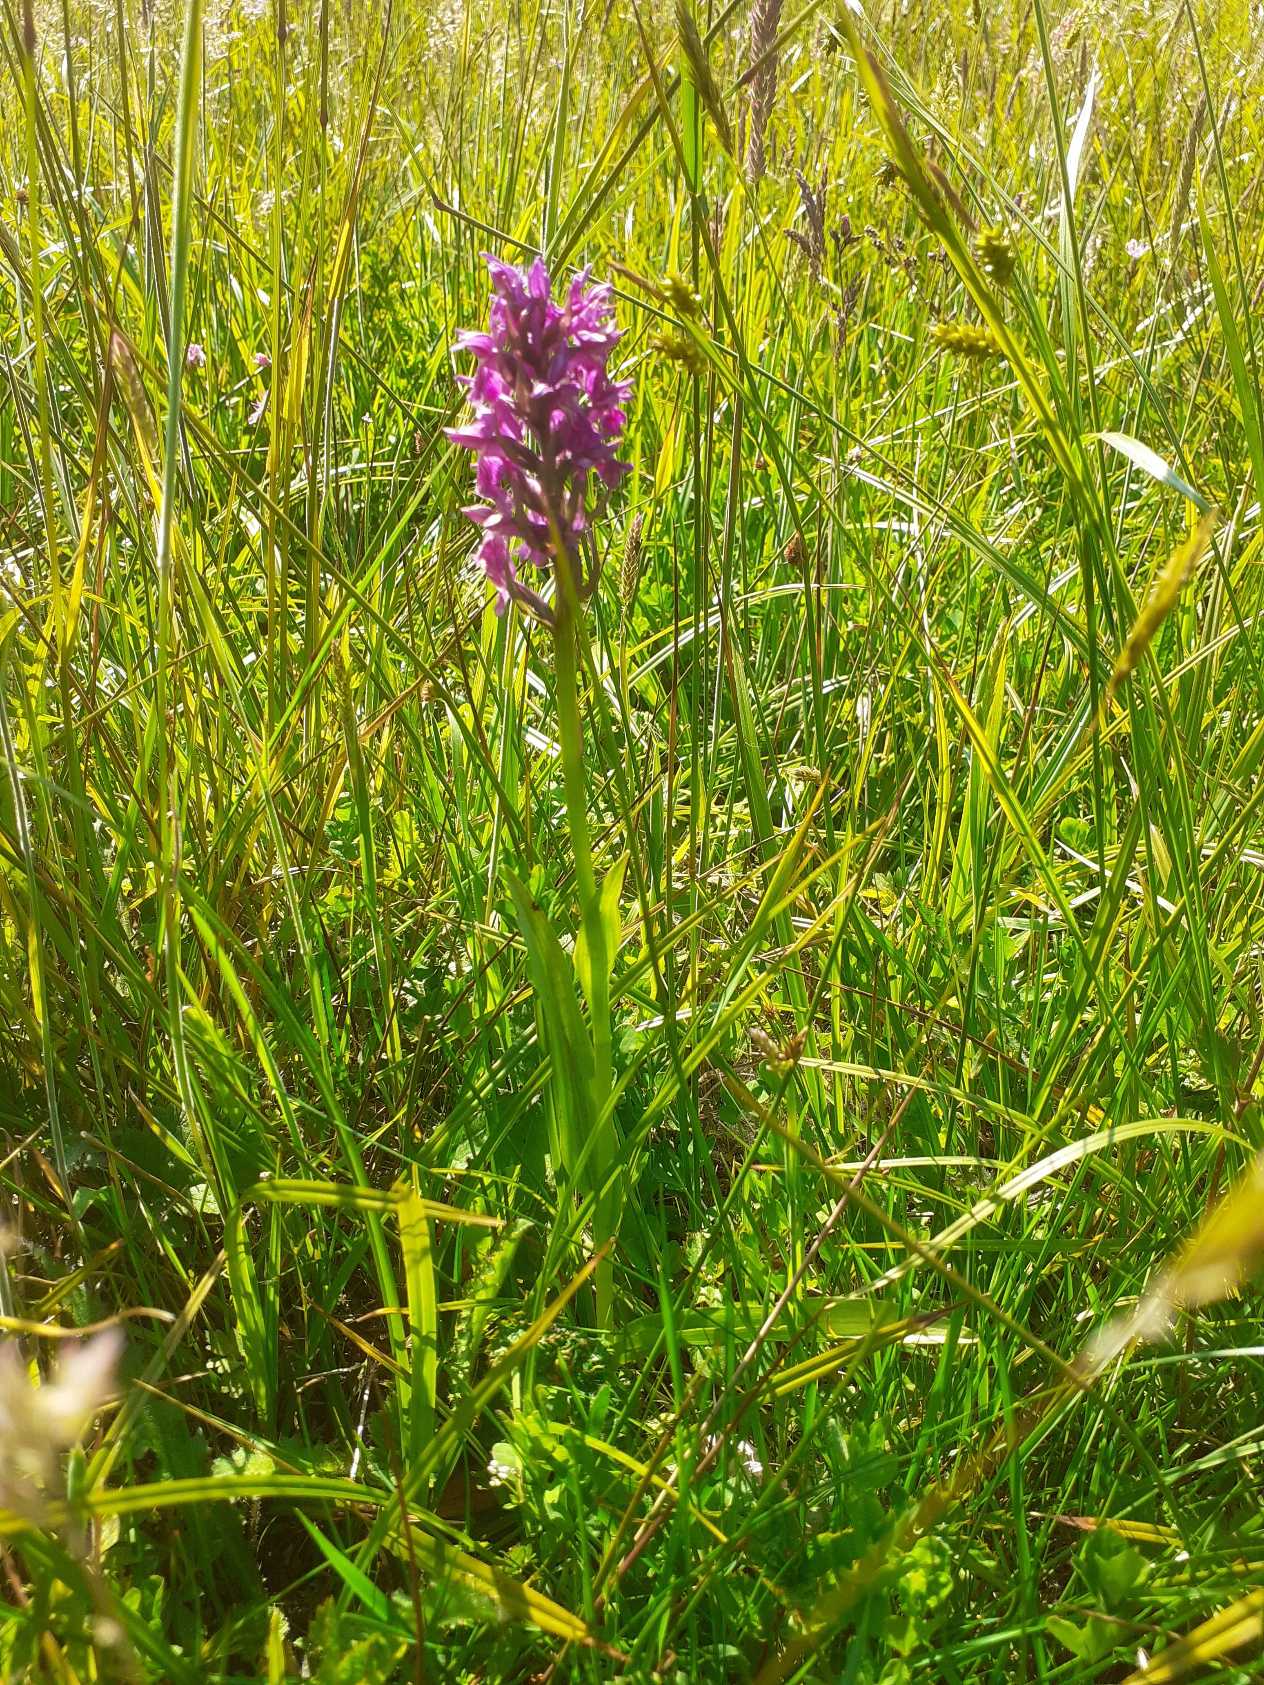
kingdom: Plantae
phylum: Tracheophyta
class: Liliopsida
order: Asparagales
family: Orchidaceae
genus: Dactylorhiza
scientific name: Dactylorhiza majalis
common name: Maj-gøgeurt
